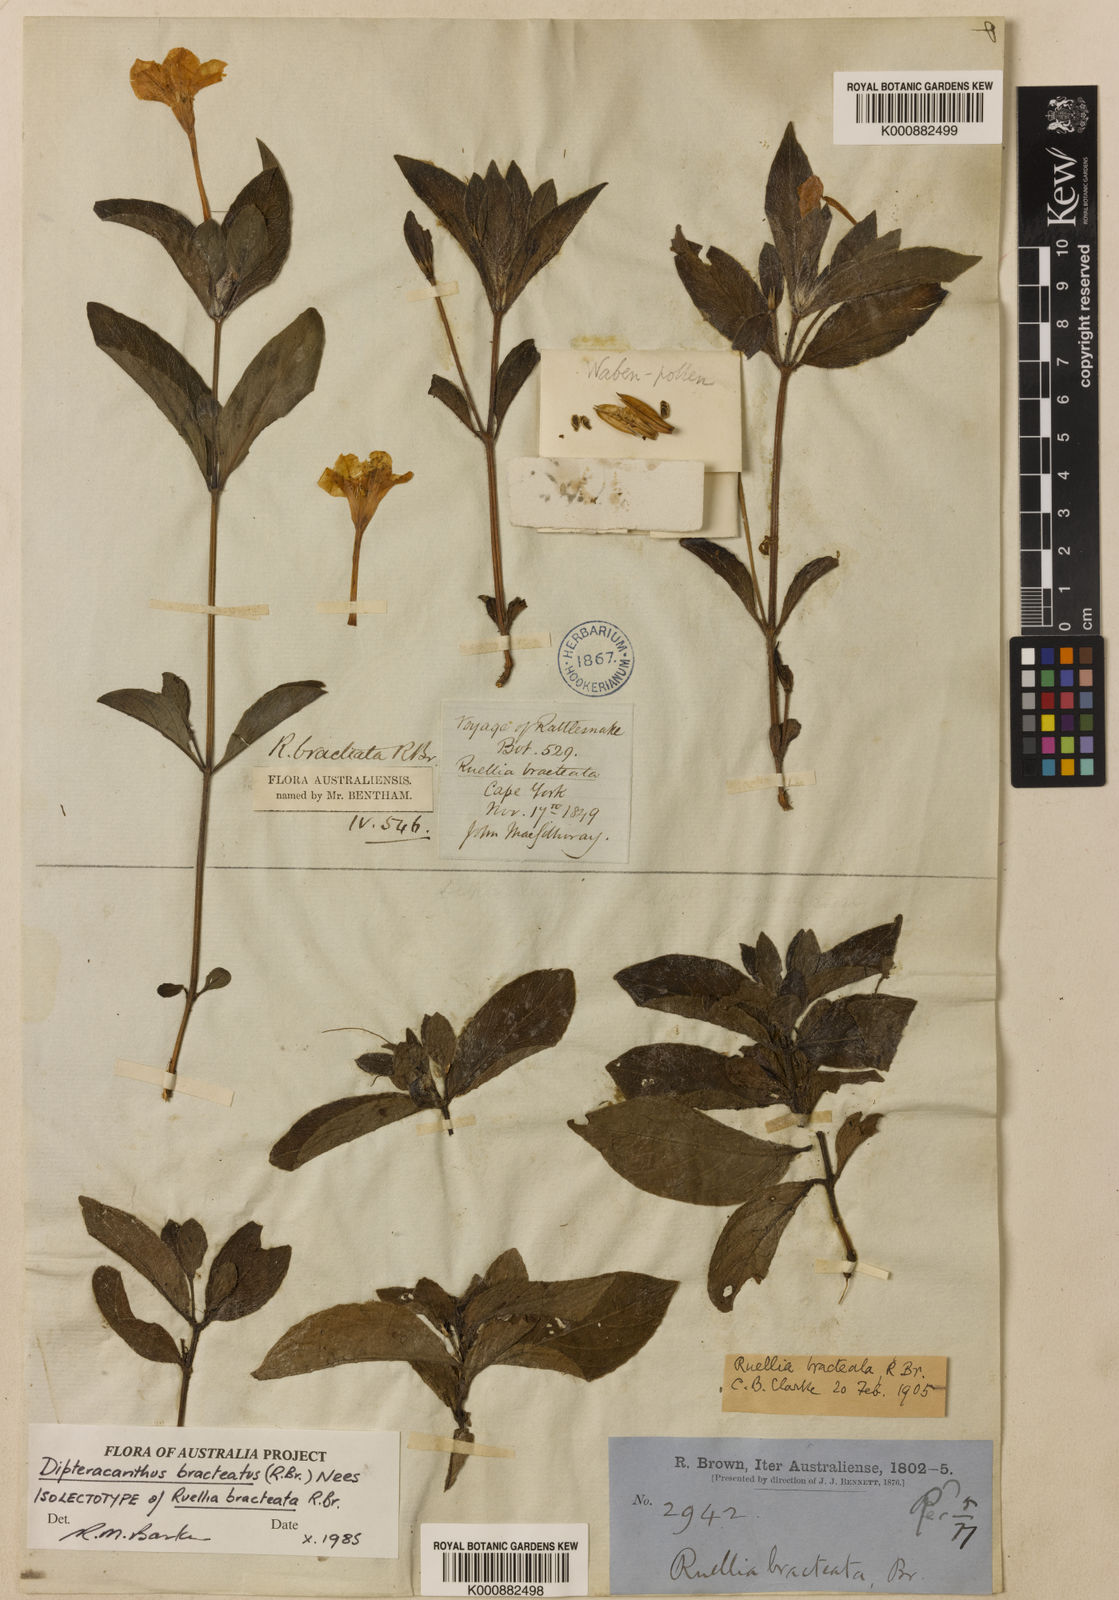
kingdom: Plantae
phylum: Tracheophyta
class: Magnoliopsida
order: Lamiales
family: Acanthaceae
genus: Ruellia
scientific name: Ruellia bracteata
